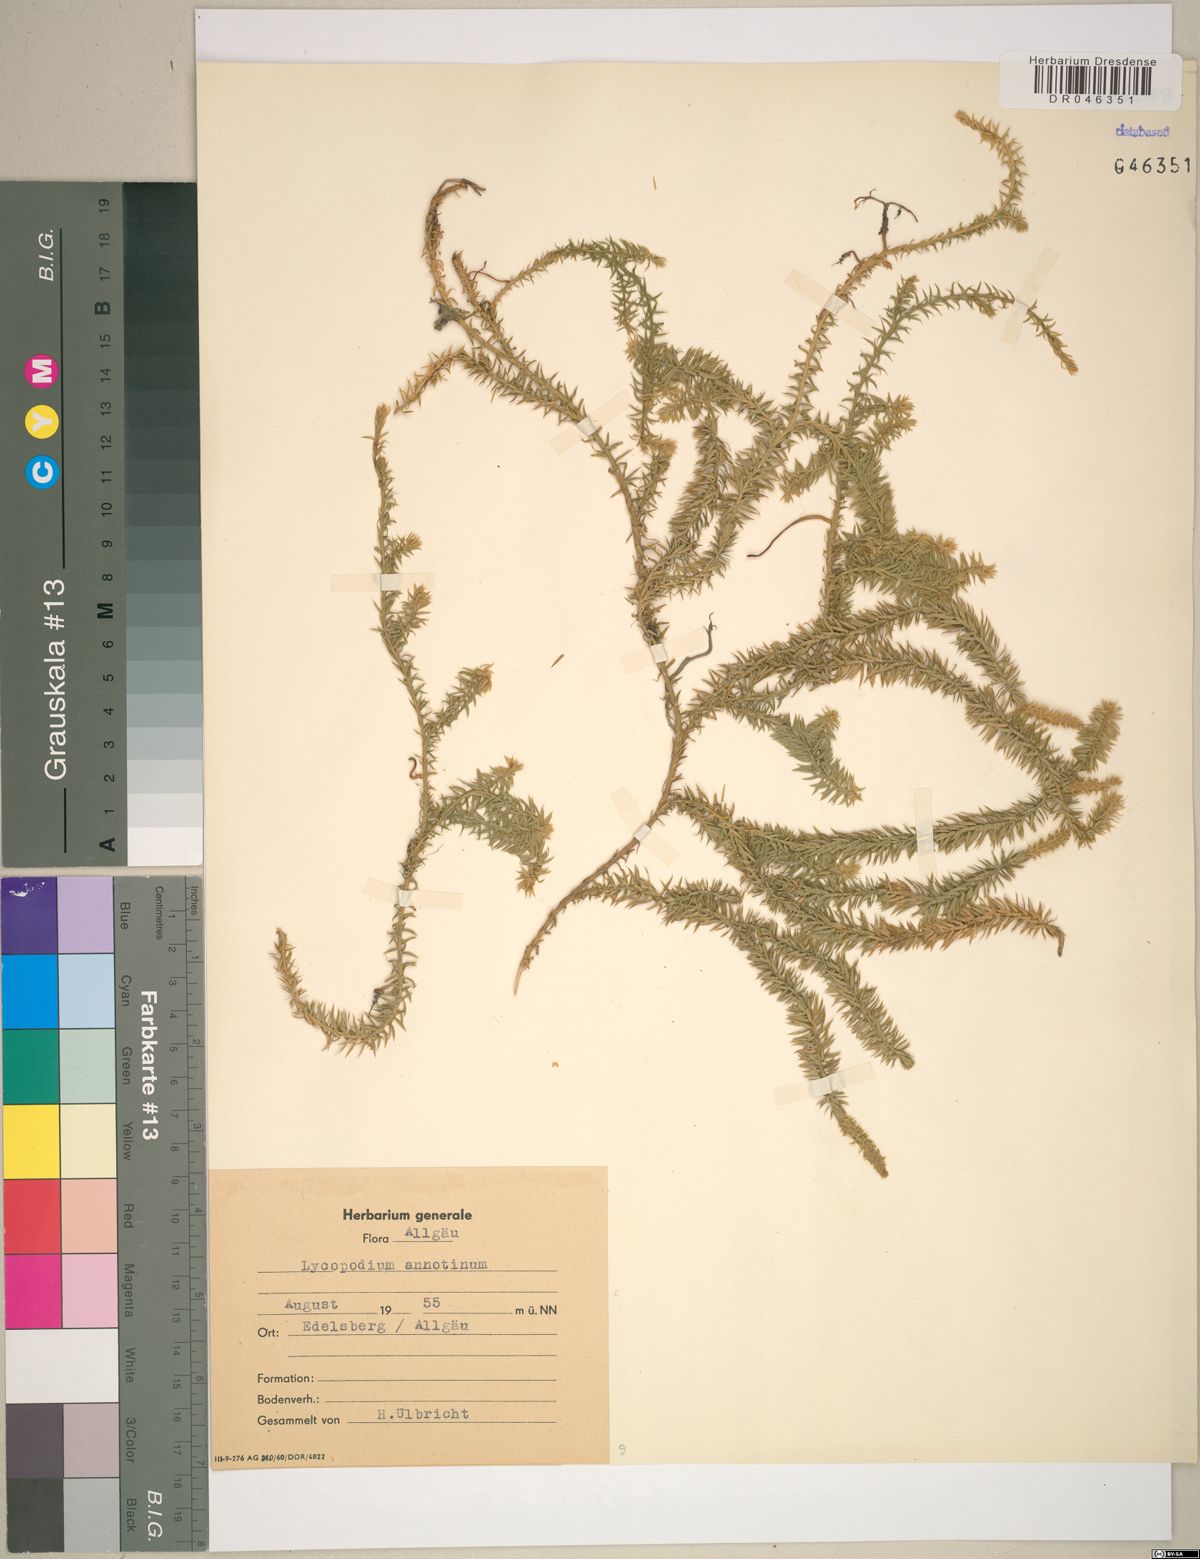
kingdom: Plantae
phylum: Tracheophyta
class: Lycopodiopsida
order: Lycopodiales
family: Lycopodiaceae
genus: Spinulum
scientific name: Spinulum annotinum
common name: Interrupted club-moss
